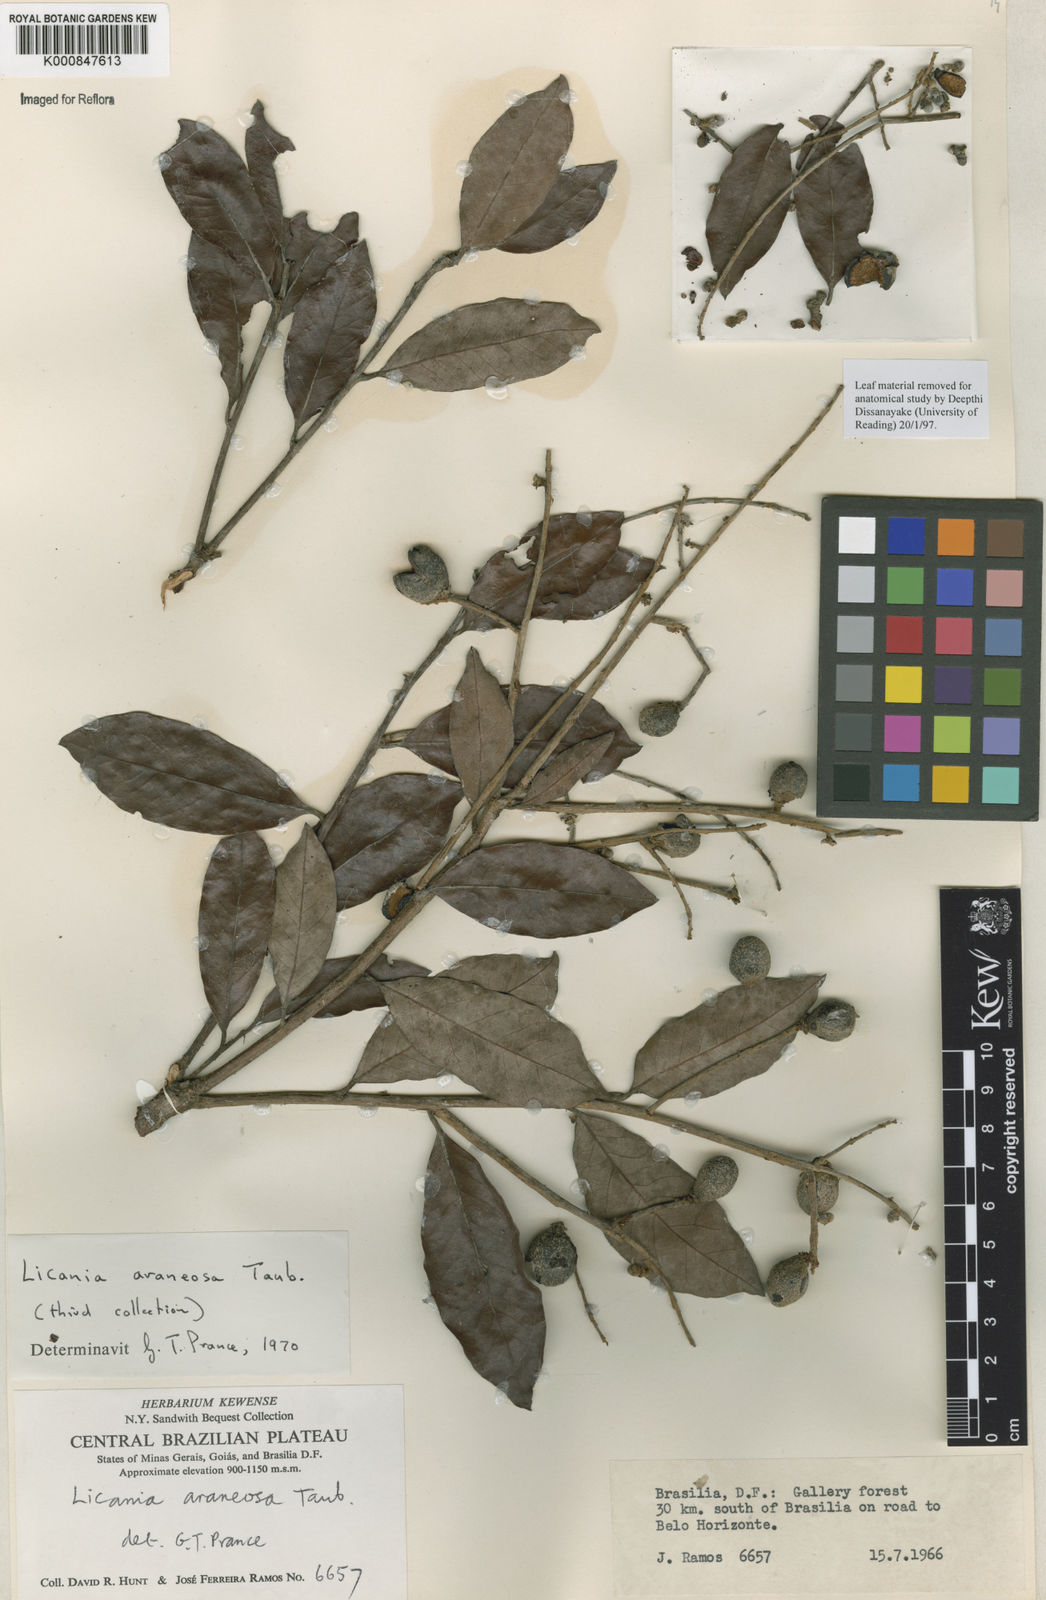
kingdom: Plantae
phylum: Tracheophyta
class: Magnoliopsida
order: Malpighiales
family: Chrysobalanaceae
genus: Moquilea
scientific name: Moquilea araneosa
